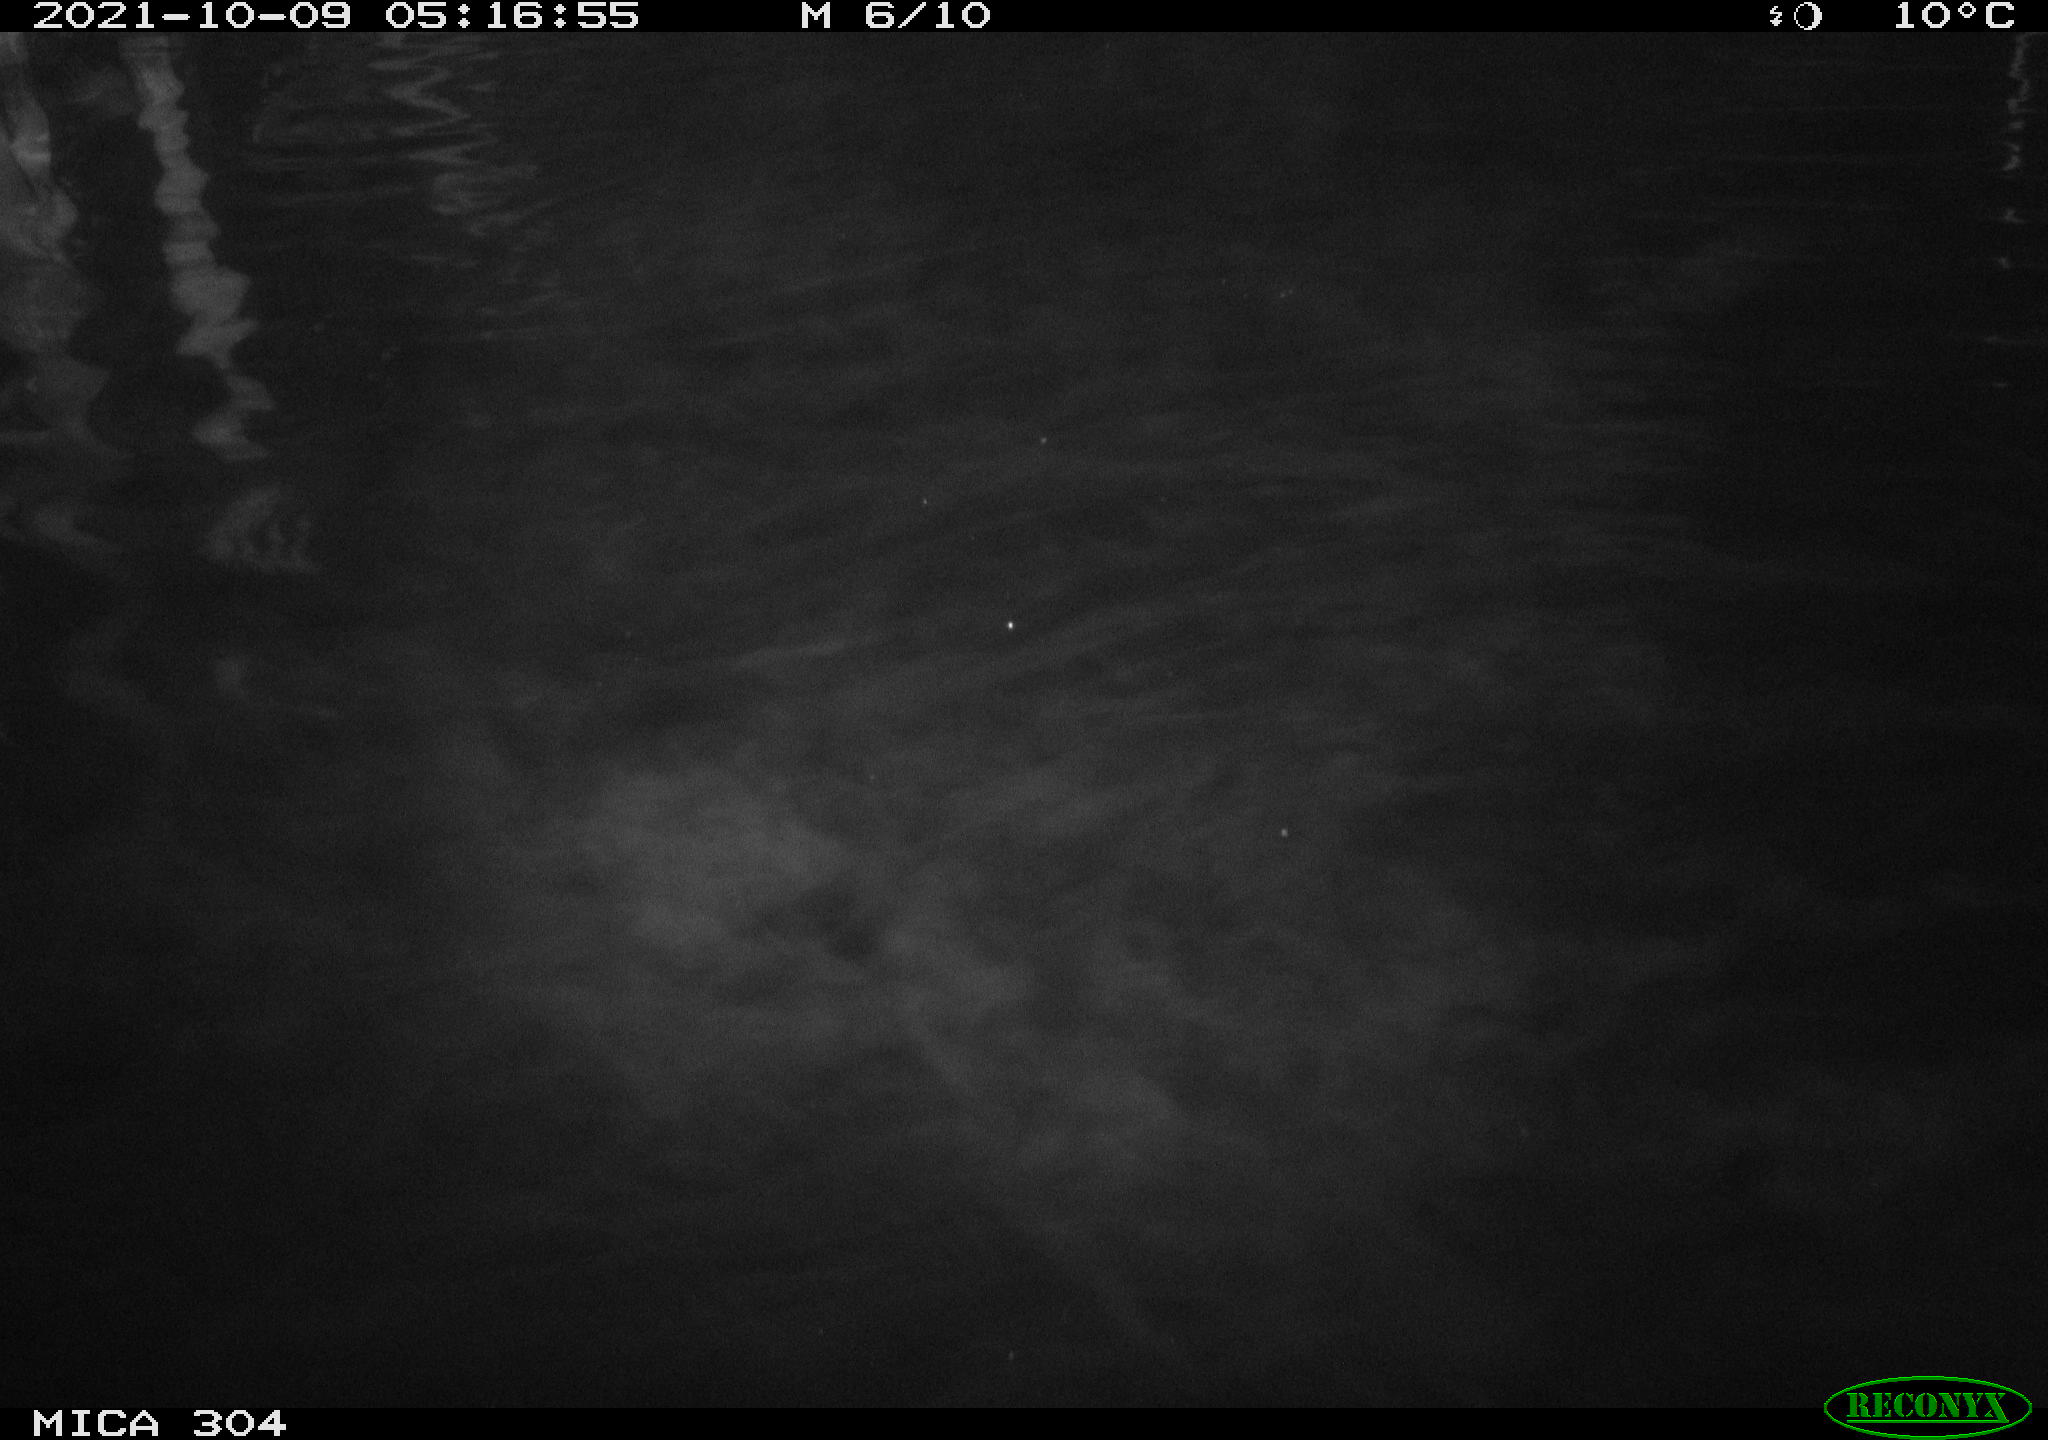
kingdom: Animalia
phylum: Chordata
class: Mammalia
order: Rodentia
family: Cricetidae
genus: Ondatra
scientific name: Ondatra zibethicus
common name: Muskrat
